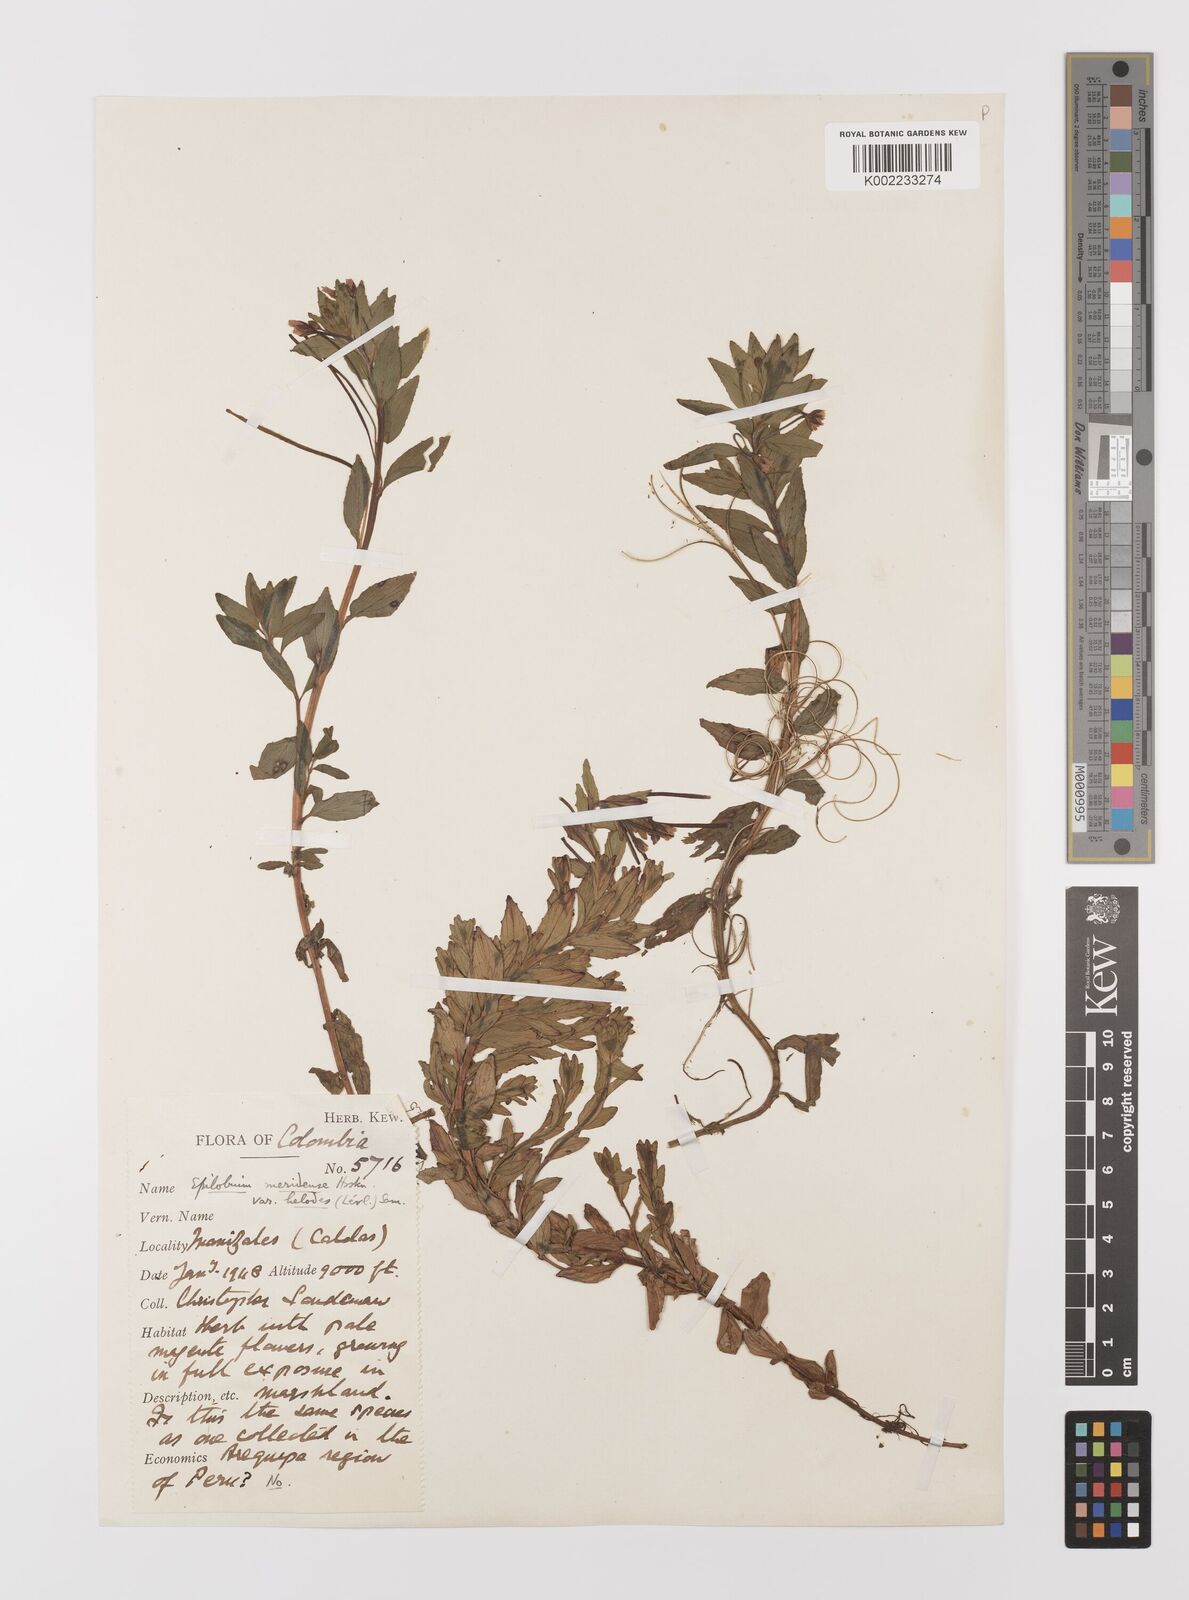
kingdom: Plantae
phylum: Tracheophyta
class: Magnoliopsida
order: Myrtales
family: Onagraceae
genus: Epilobium
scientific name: Epilobium denticulatum
